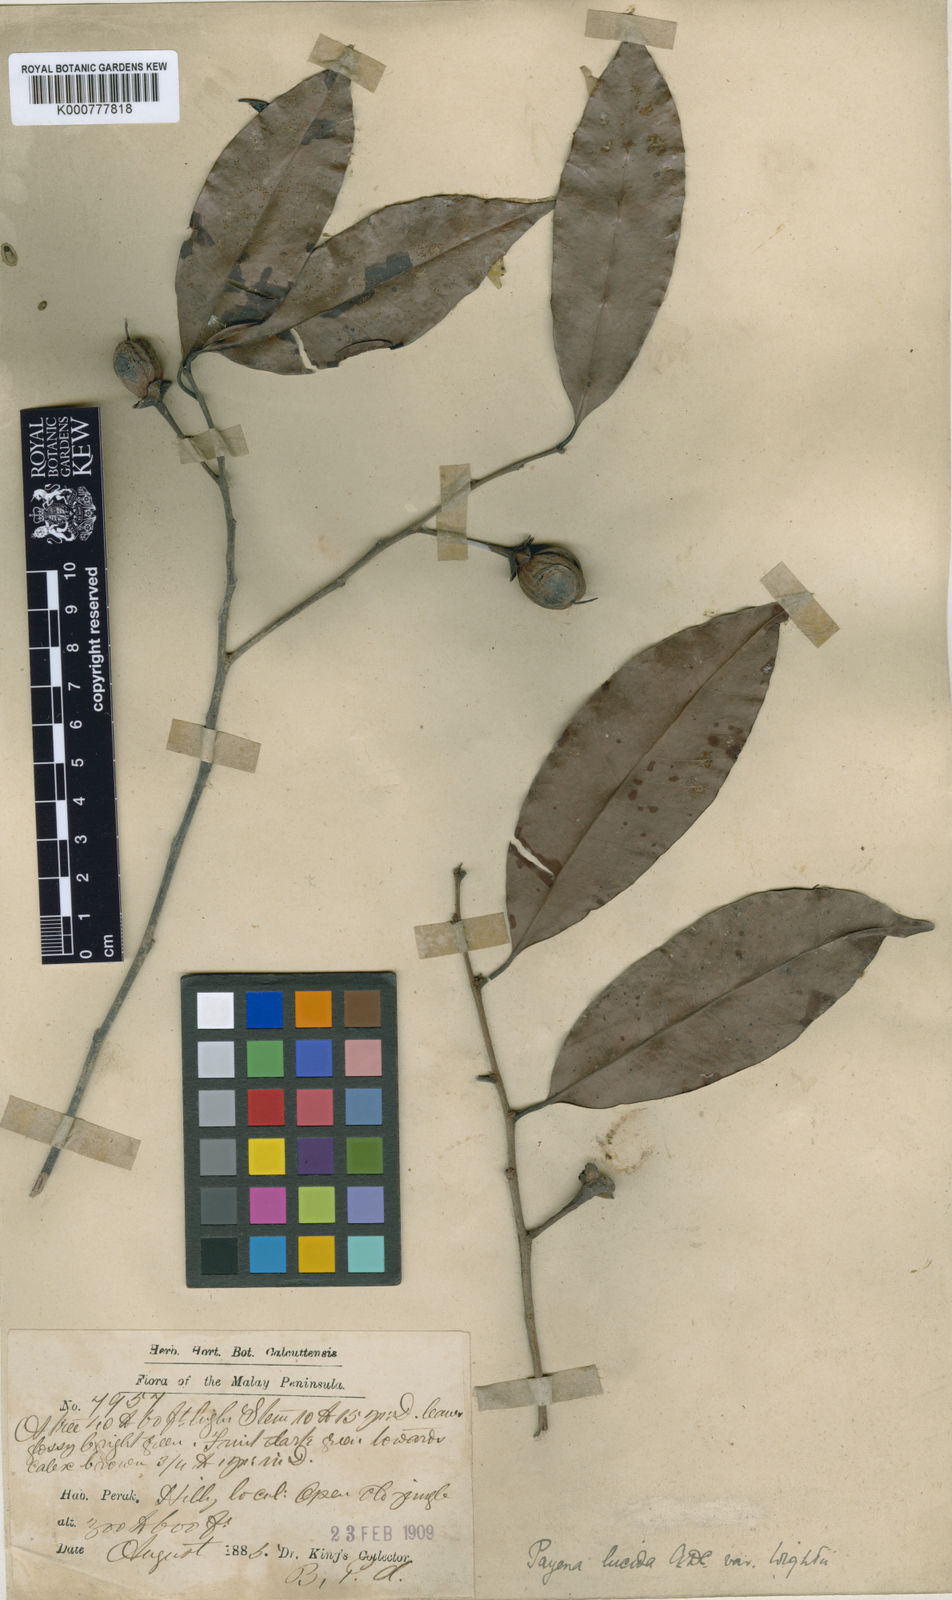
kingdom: Plantae
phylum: Tracheophyta
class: Magnoliopsida
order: Ericales
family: Sapotaceae
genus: Payena
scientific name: Payena lucida
